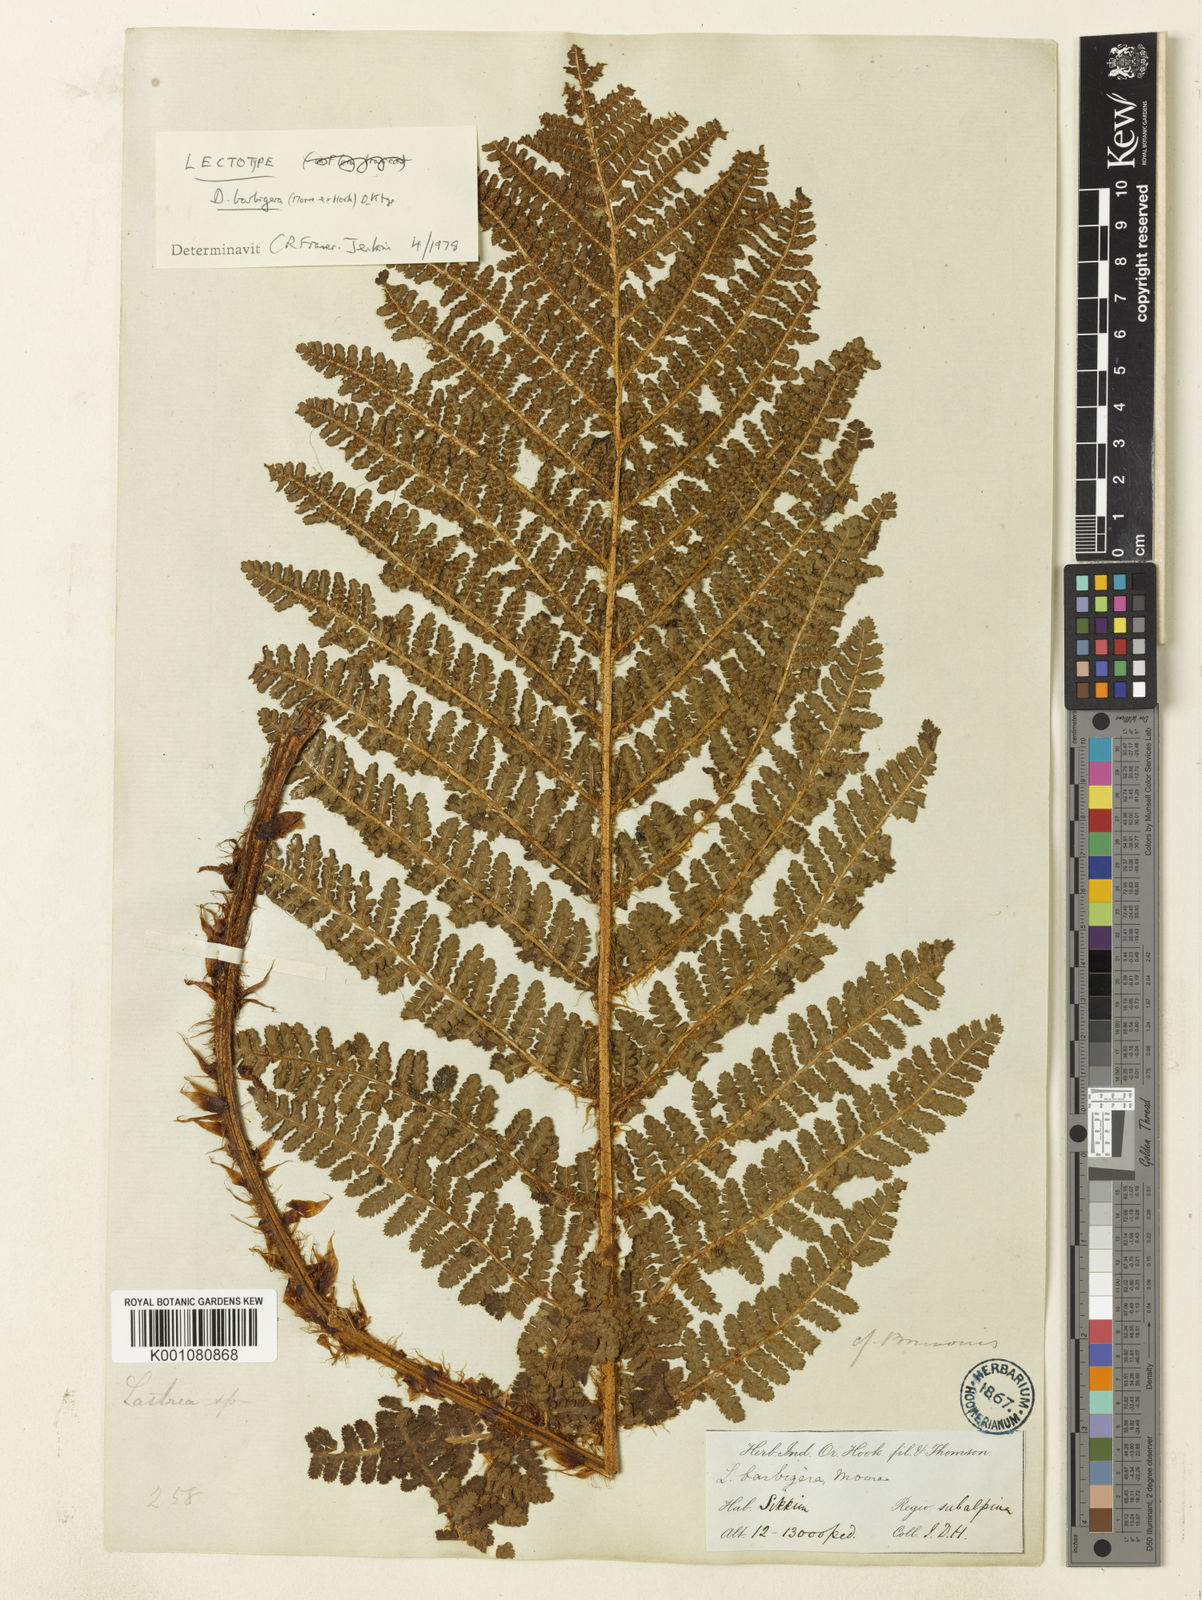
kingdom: Plantae
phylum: Tracheophyta
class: Polypodiopsida
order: Polypodiales
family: Dryopteridaceae
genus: Dryopteris
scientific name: Dryopteris barbigera
